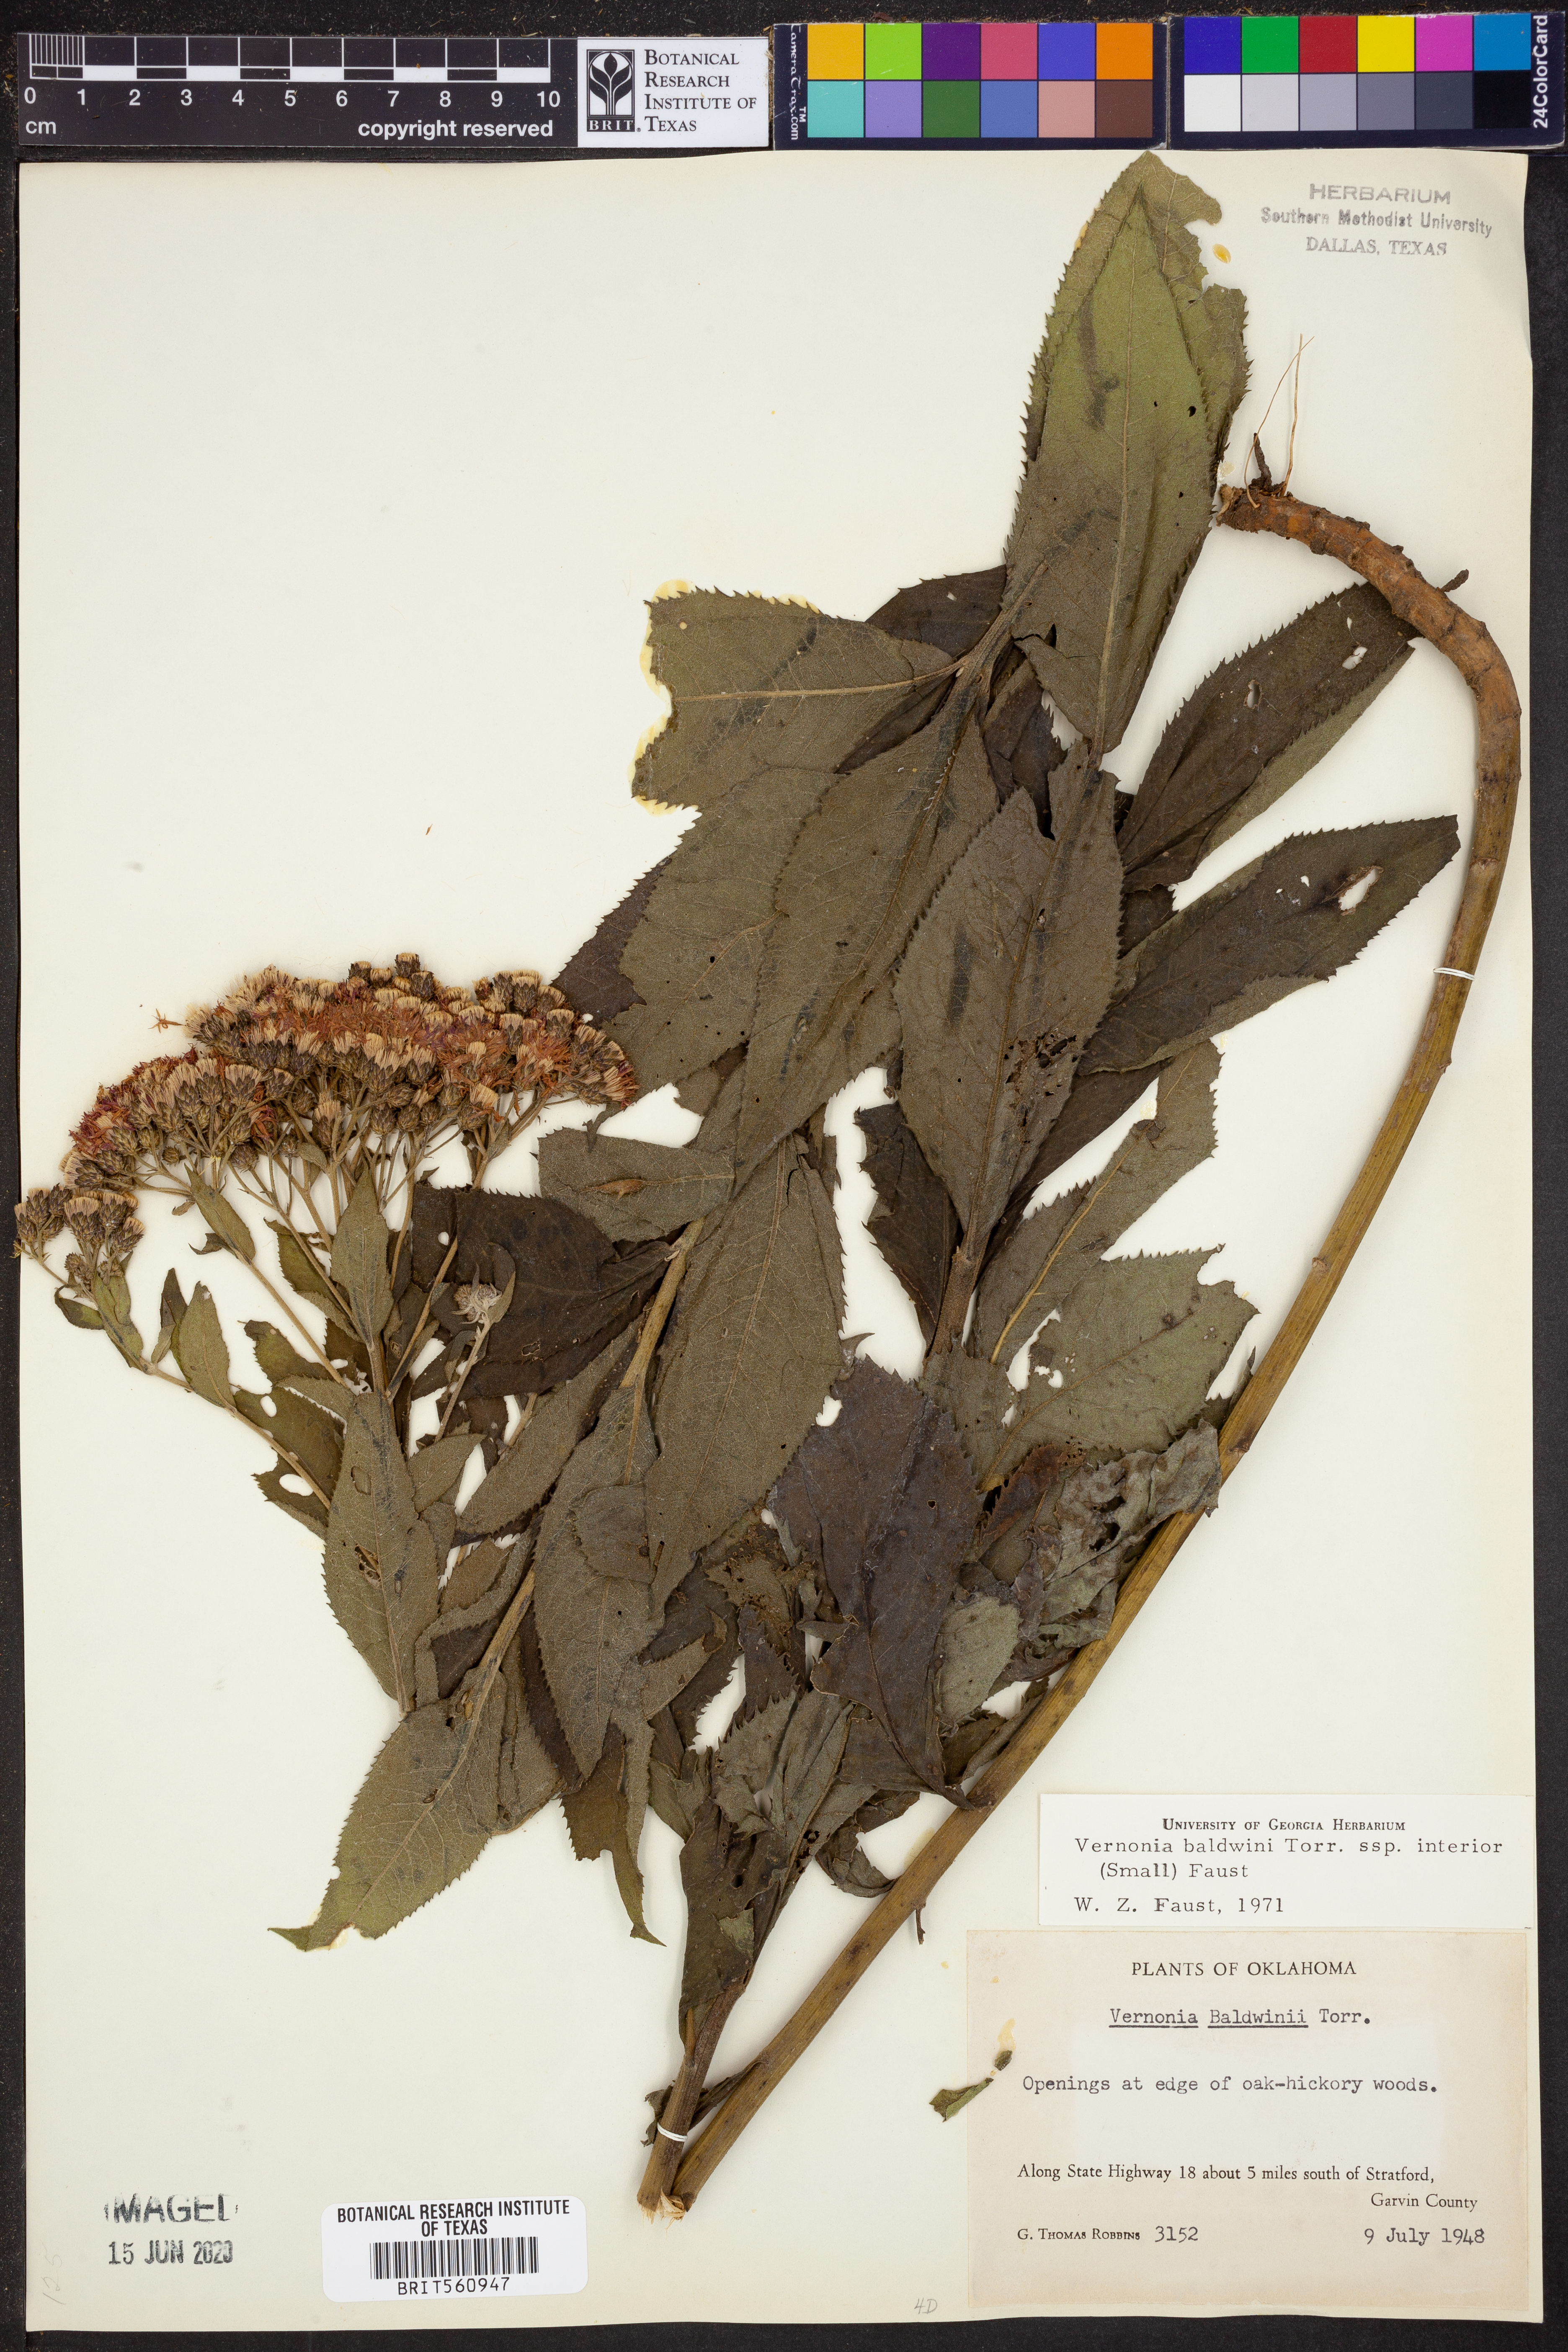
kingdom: Plantae
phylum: Tracheophyta
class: Magnoliopsida
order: Asterales
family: Asteraceae
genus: Vernonia
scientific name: Vernonia baldwinii
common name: Western ironweed
